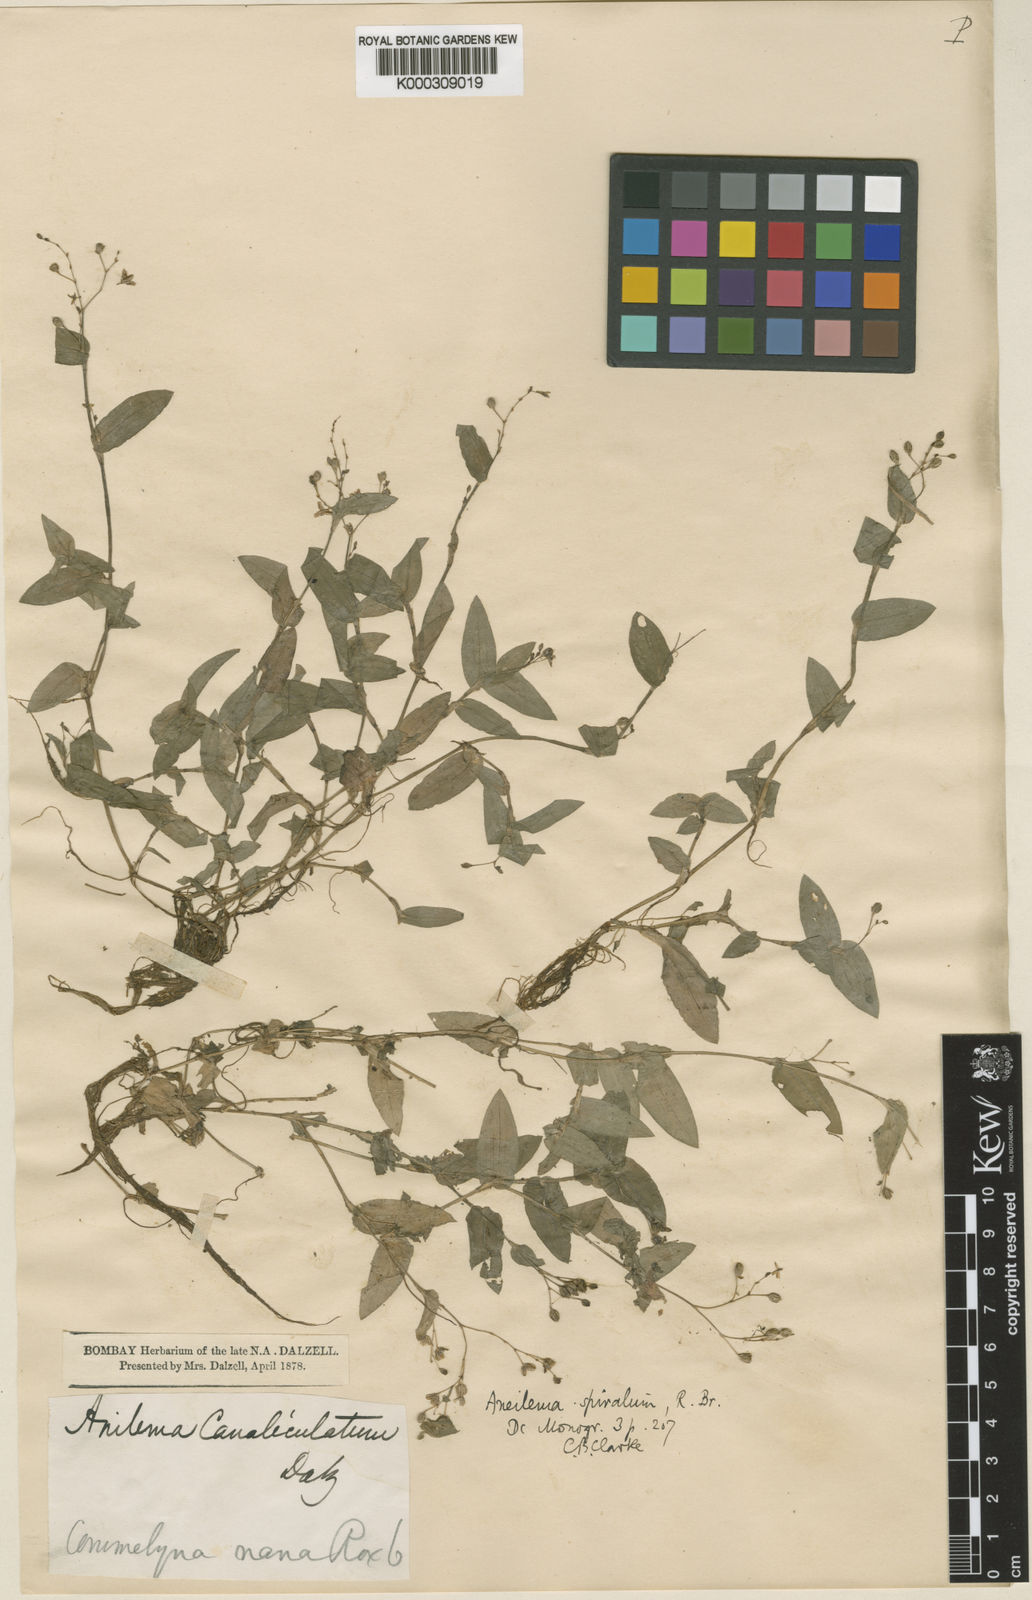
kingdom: Plantae
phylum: Tracheophyta
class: Liliopsida
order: Commelinales
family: Commelinaceae
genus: Murdannia
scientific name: Murdannia
